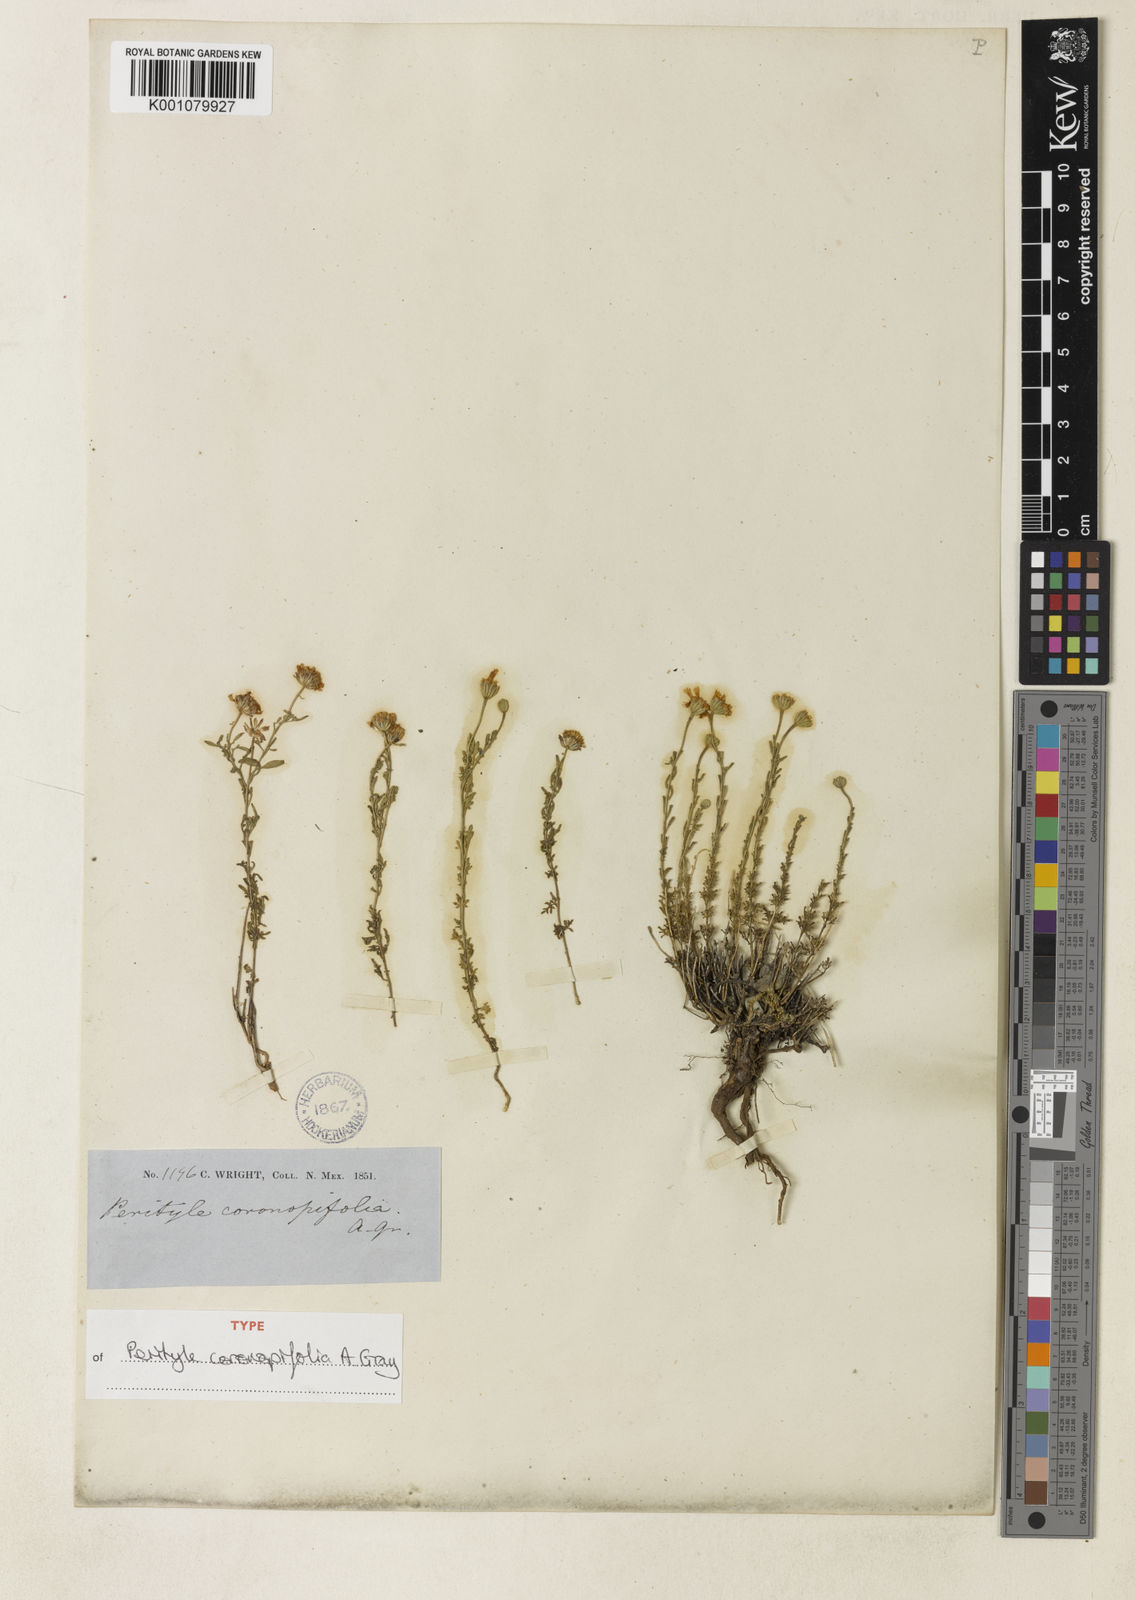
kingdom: Plantae
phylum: Tracheophyta
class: Magnoliopsida
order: Asterales
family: Asteraceae
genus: Galinsogeopsis
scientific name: Galinsogeopsis coronopifolia
